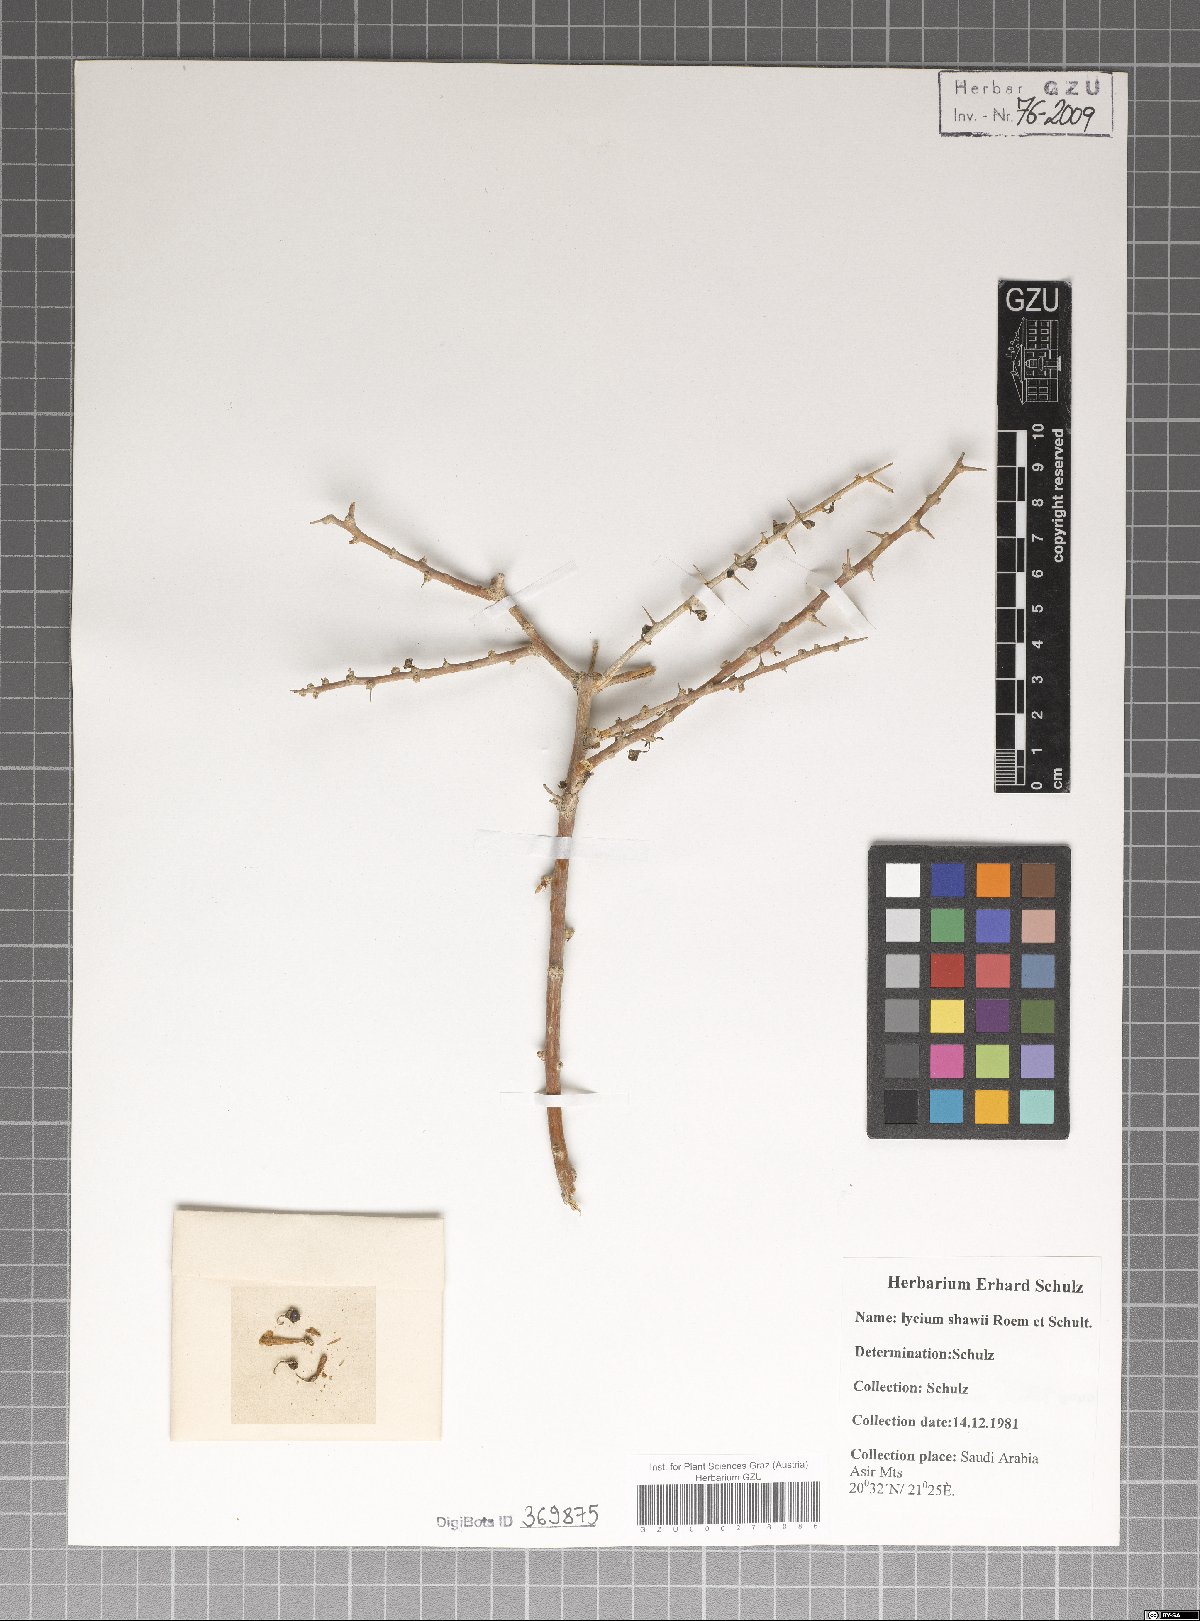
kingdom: Plantae
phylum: Tracheophyta
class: Magnoliopsida
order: Solanales
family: Solanaceae
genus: Lycium
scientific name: Lycium shawii
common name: Boxthorn
